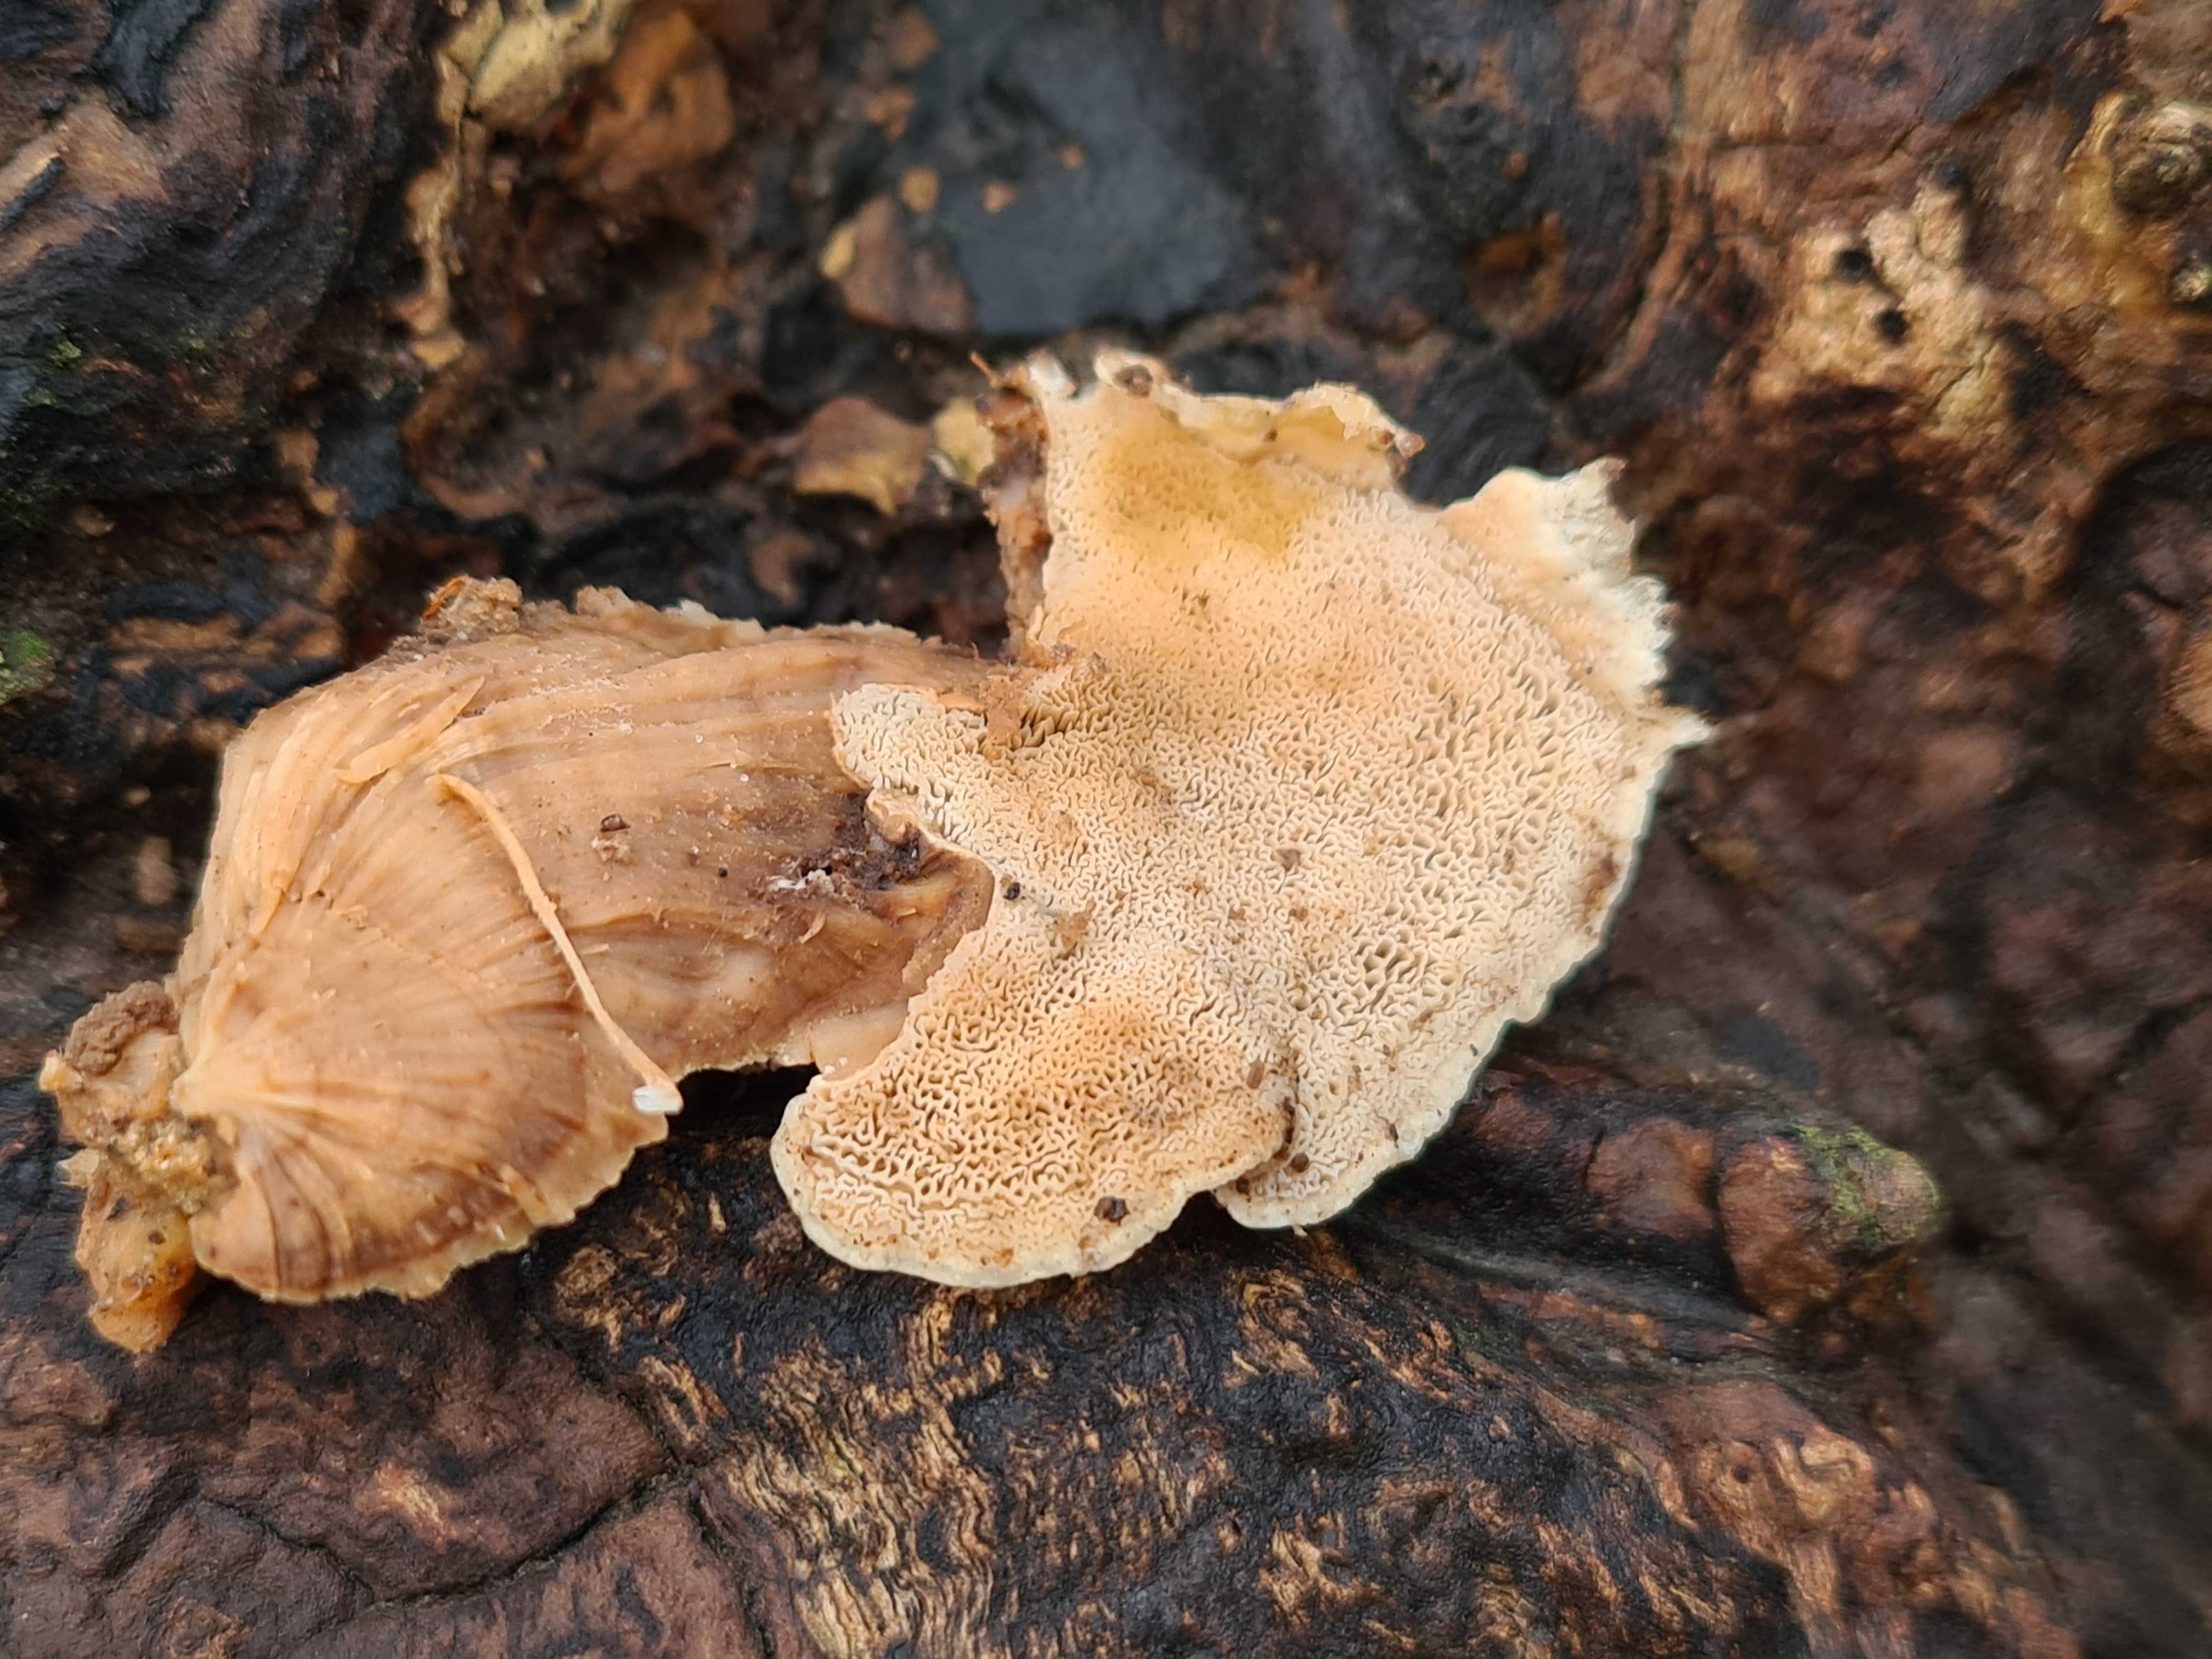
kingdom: Fungi
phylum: Basidiomycota
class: Agaricomycetes
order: Polyporales
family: Phanerochaetaceae
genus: Bjerkandera
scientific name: Bjerkandera fumosa
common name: grågul sodporesvamp
